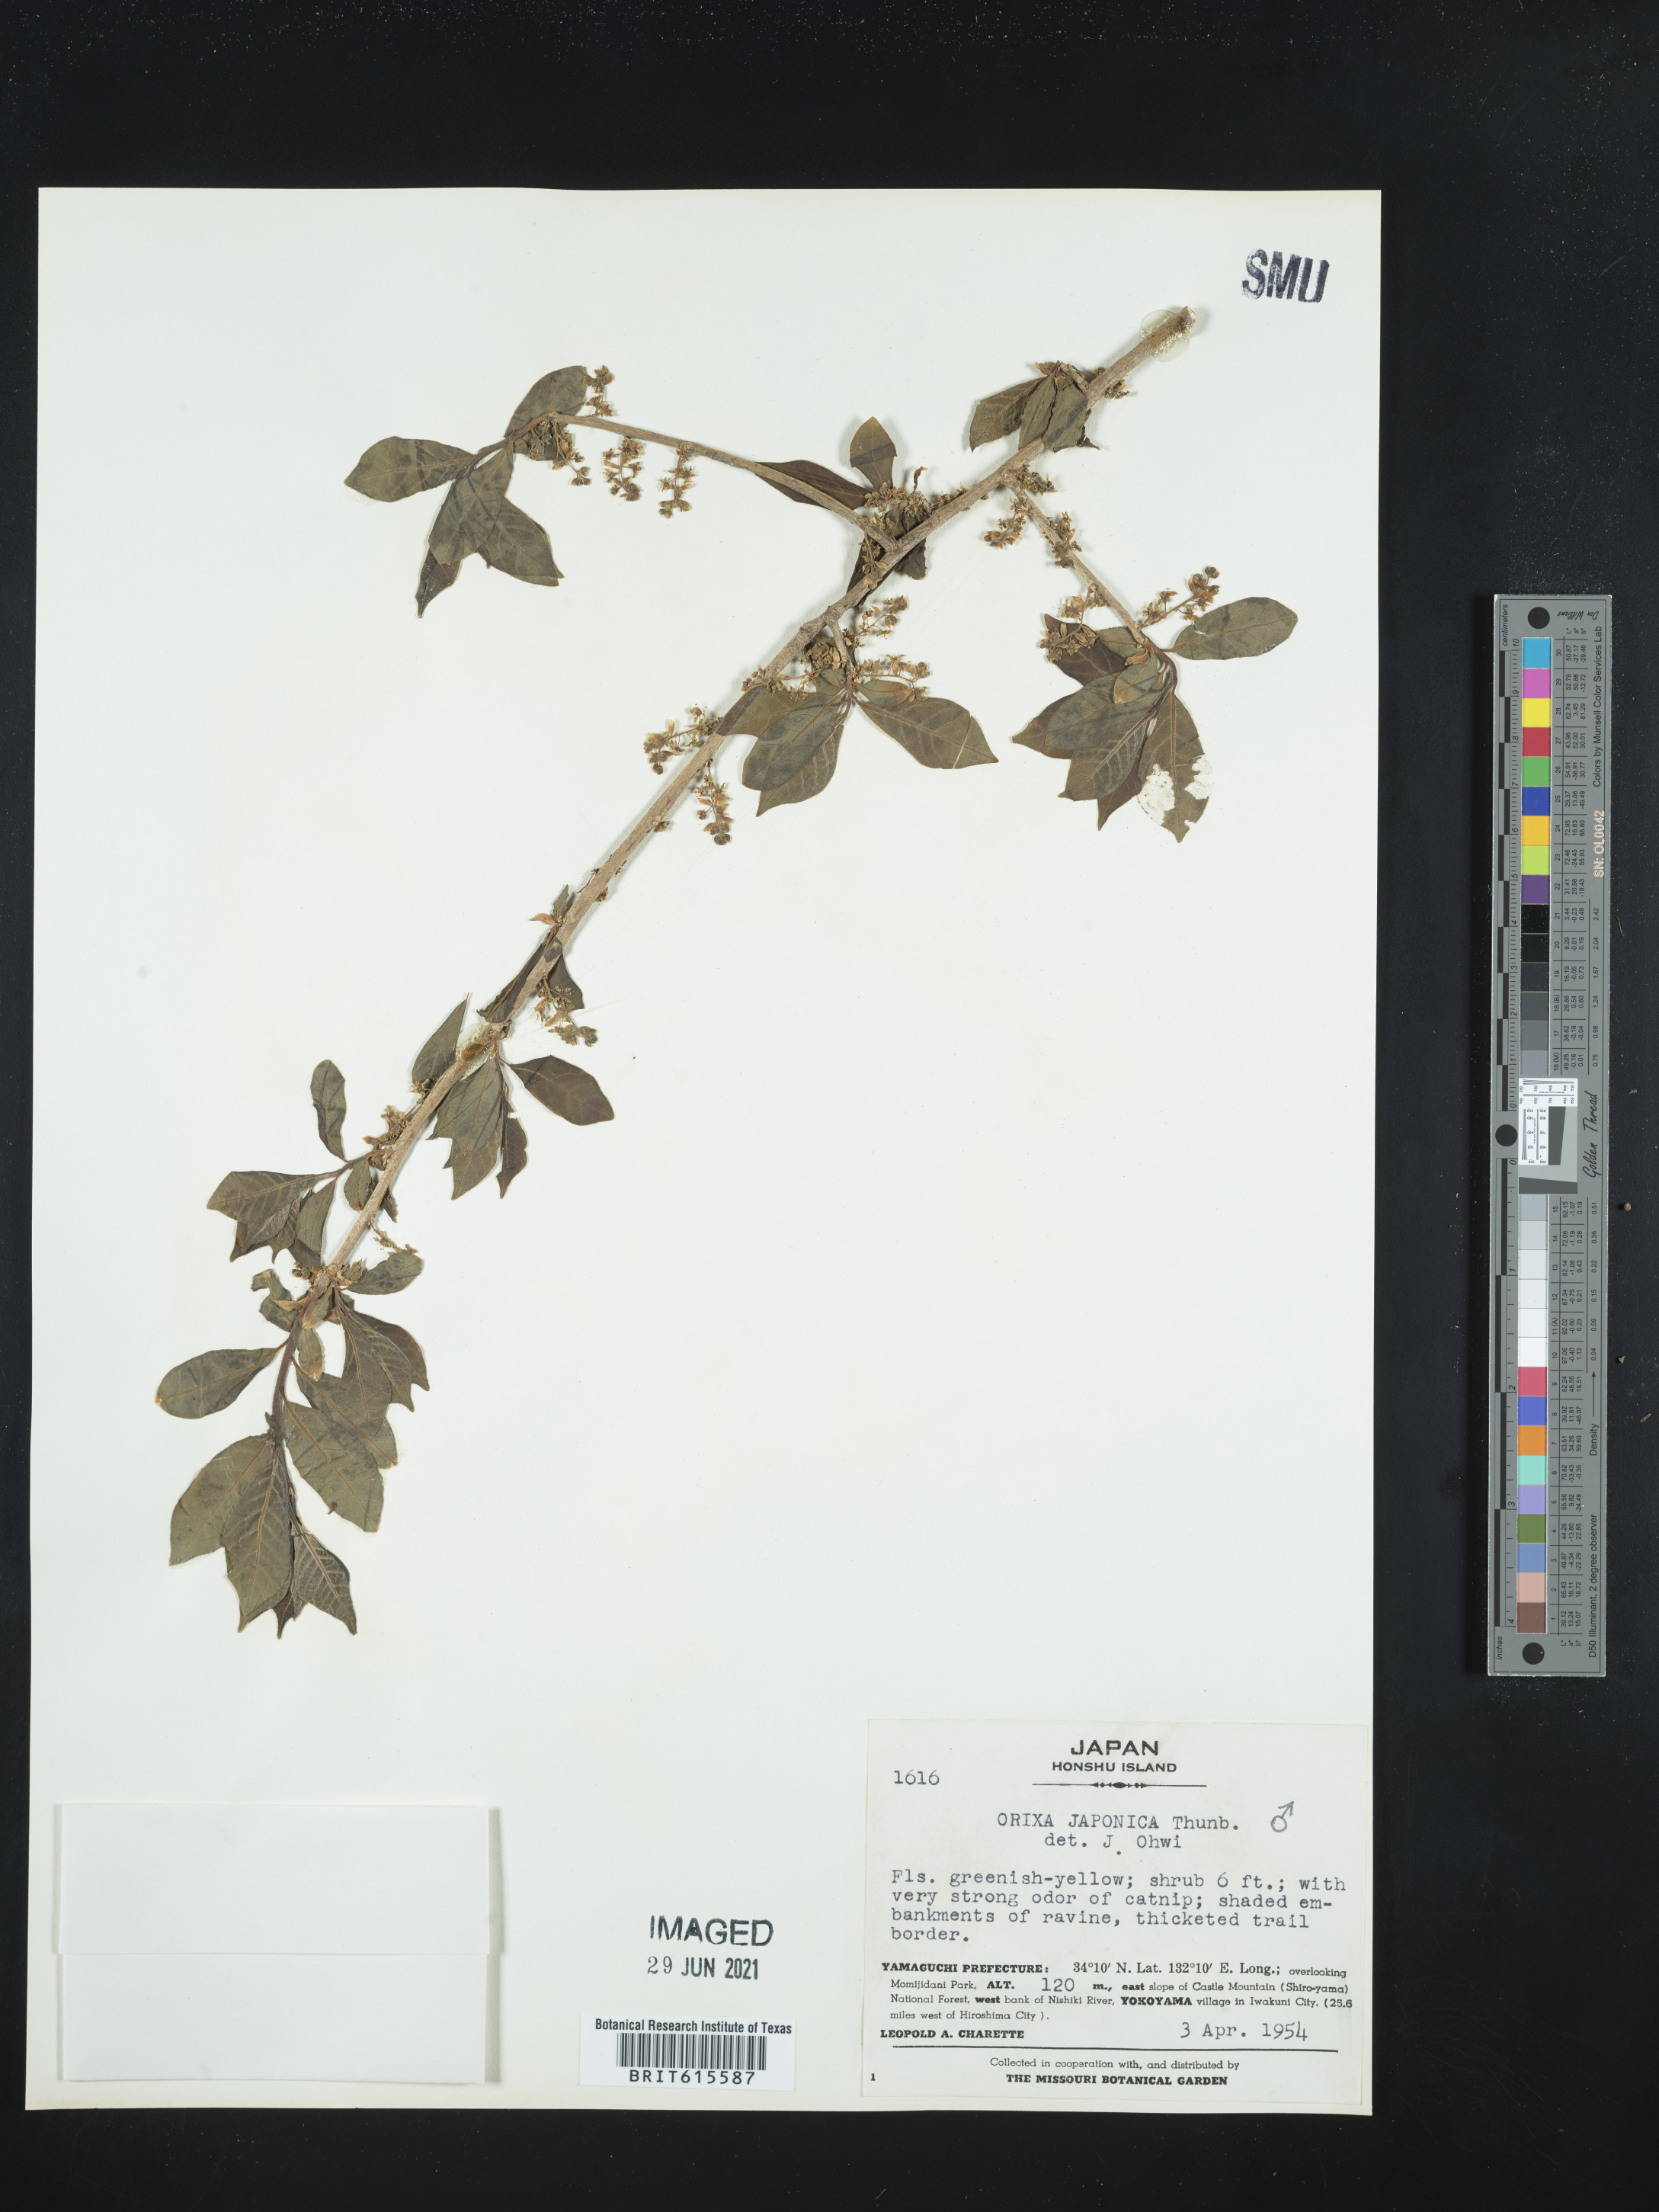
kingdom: Plantae
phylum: Tracheophyta
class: Magnoliopsida
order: Sapindales
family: Rutaceae
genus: Orixa
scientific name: Orixa japonica
